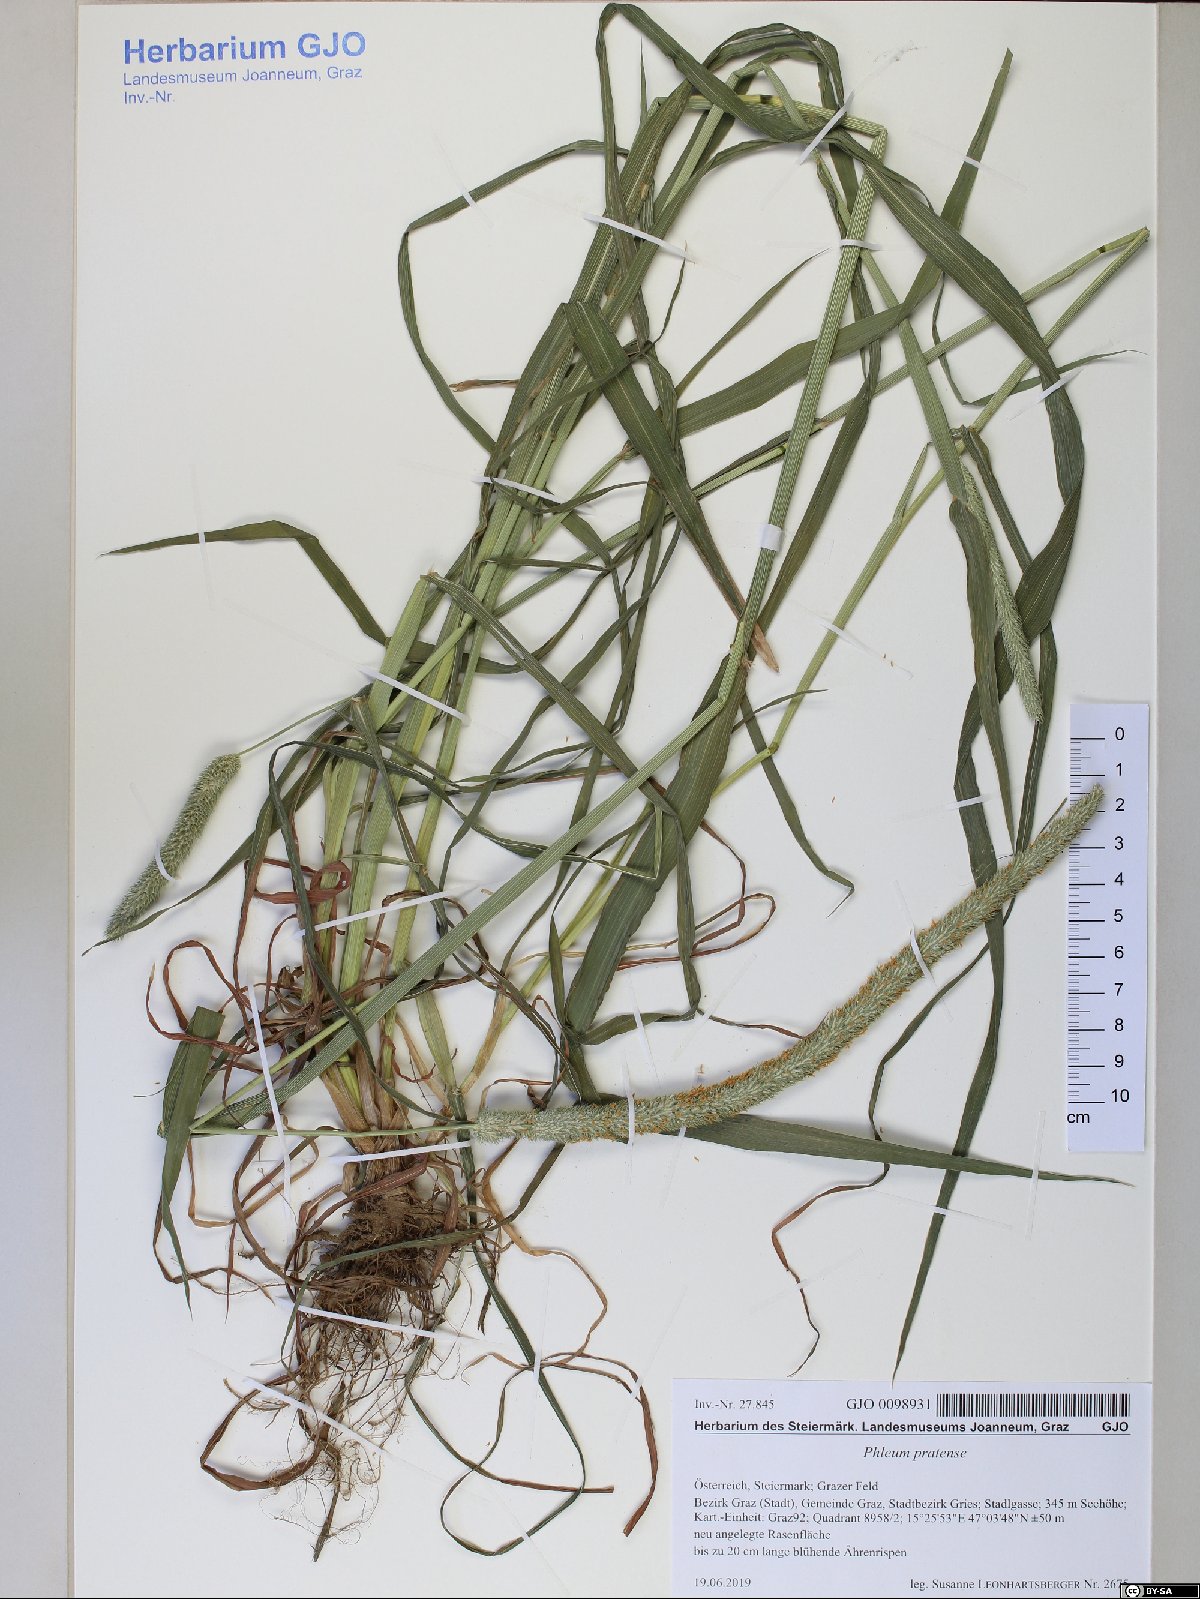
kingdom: Plantae
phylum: Tracheophyta
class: Liliopsida
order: Poales
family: Poaceae
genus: Phleum
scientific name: Phleum pratense
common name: Timothy grass
